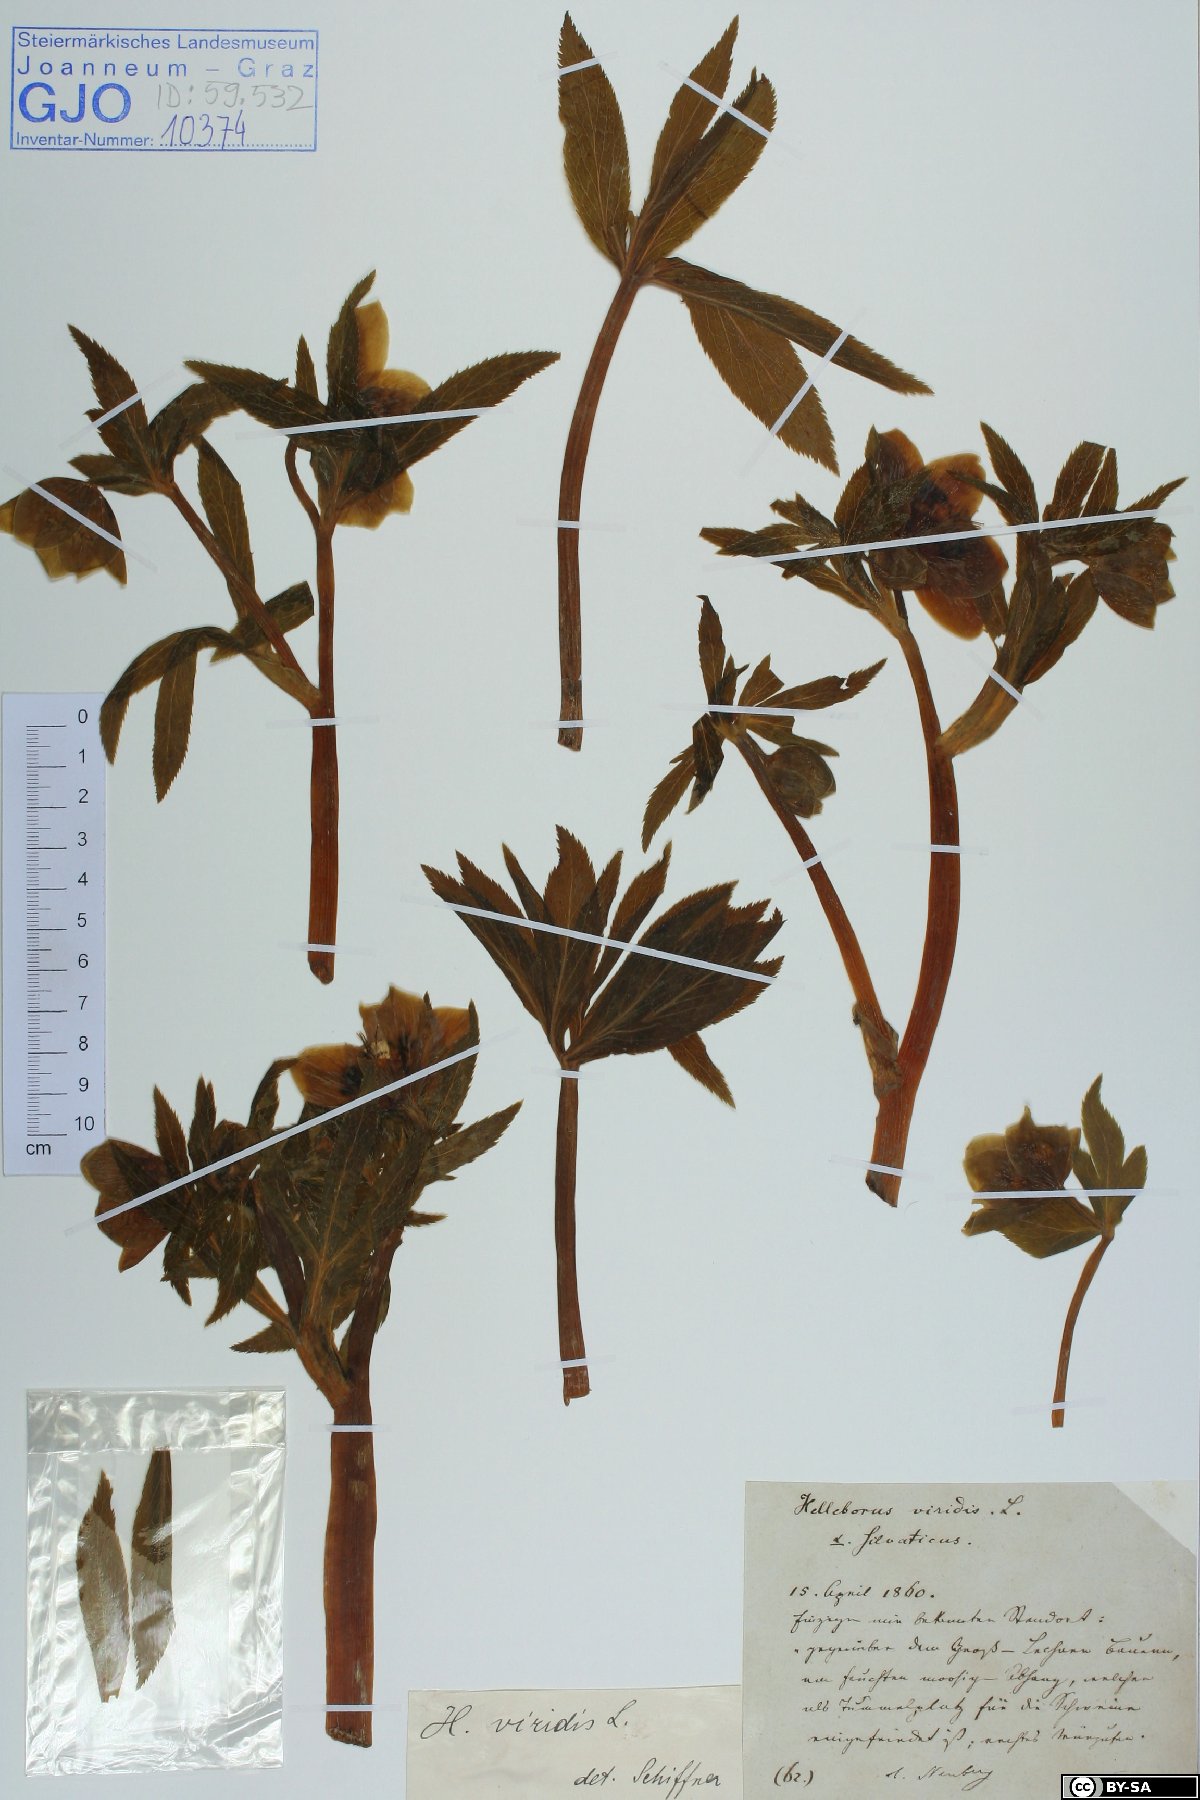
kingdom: Plantae
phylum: Tracheophyta
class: Magnoliopsida
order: Ranunculales
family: Ranunculaceae
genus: Helleborus
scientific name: Helleborus viridis
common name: Green hellebore
